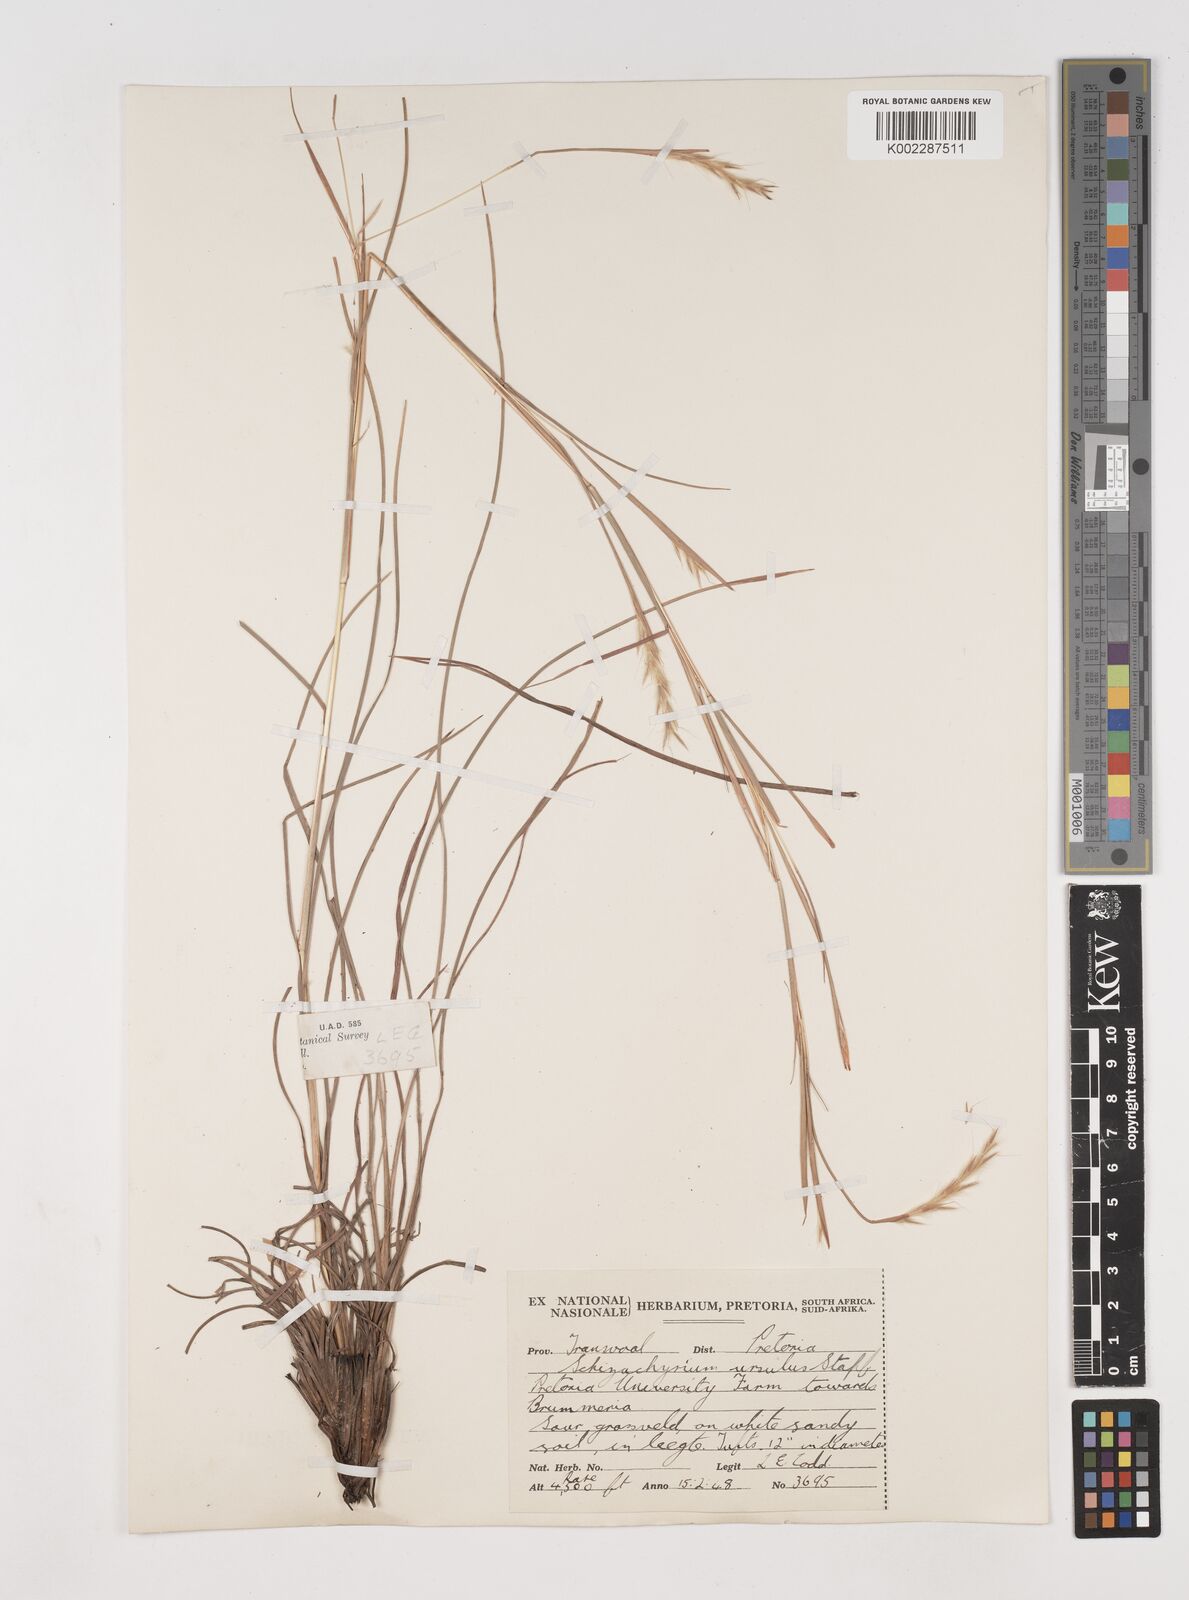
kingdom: Plantae
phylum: Tracheophyta
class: Liliopsida
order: Poales
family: Poaceae
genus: Schizachyrium
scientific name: Schizachyrium jeffreysii
